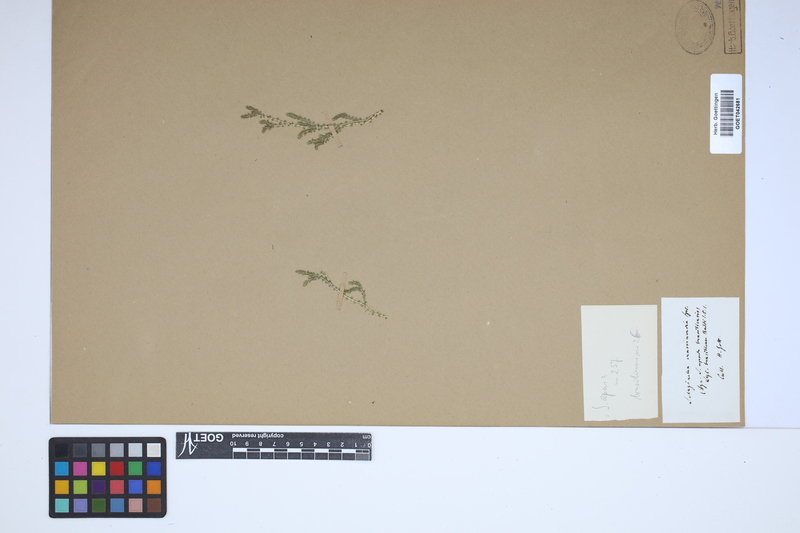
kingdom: Plantae
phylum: Tracheophyta
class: Lycopodiopsida
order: Selaginellales
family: Selaginellaceae
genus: Selaginella
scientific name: Selaginella muscosa
